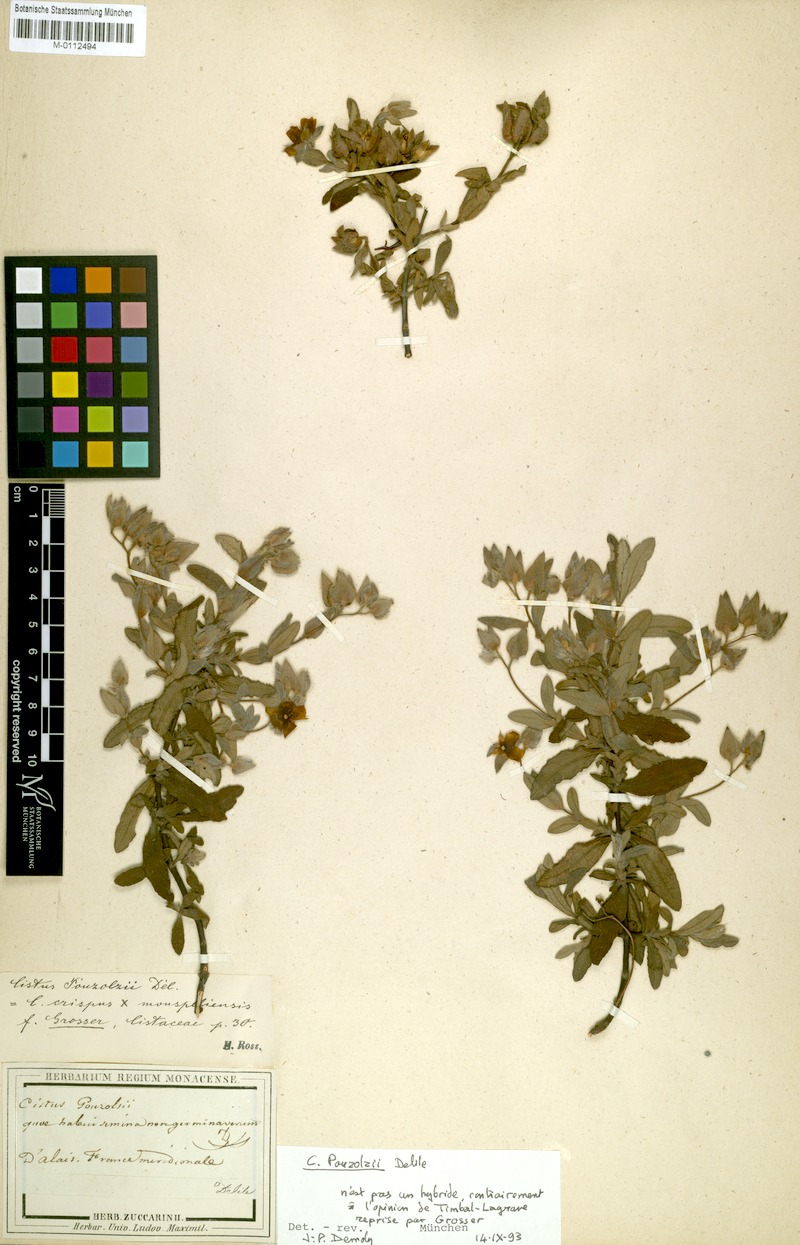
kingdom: Plantae
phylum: Tracheophyta
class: Magnoliopsida
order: Malvales
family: Cistaceae
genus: Cistus
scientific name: Cistus pouzolzii
